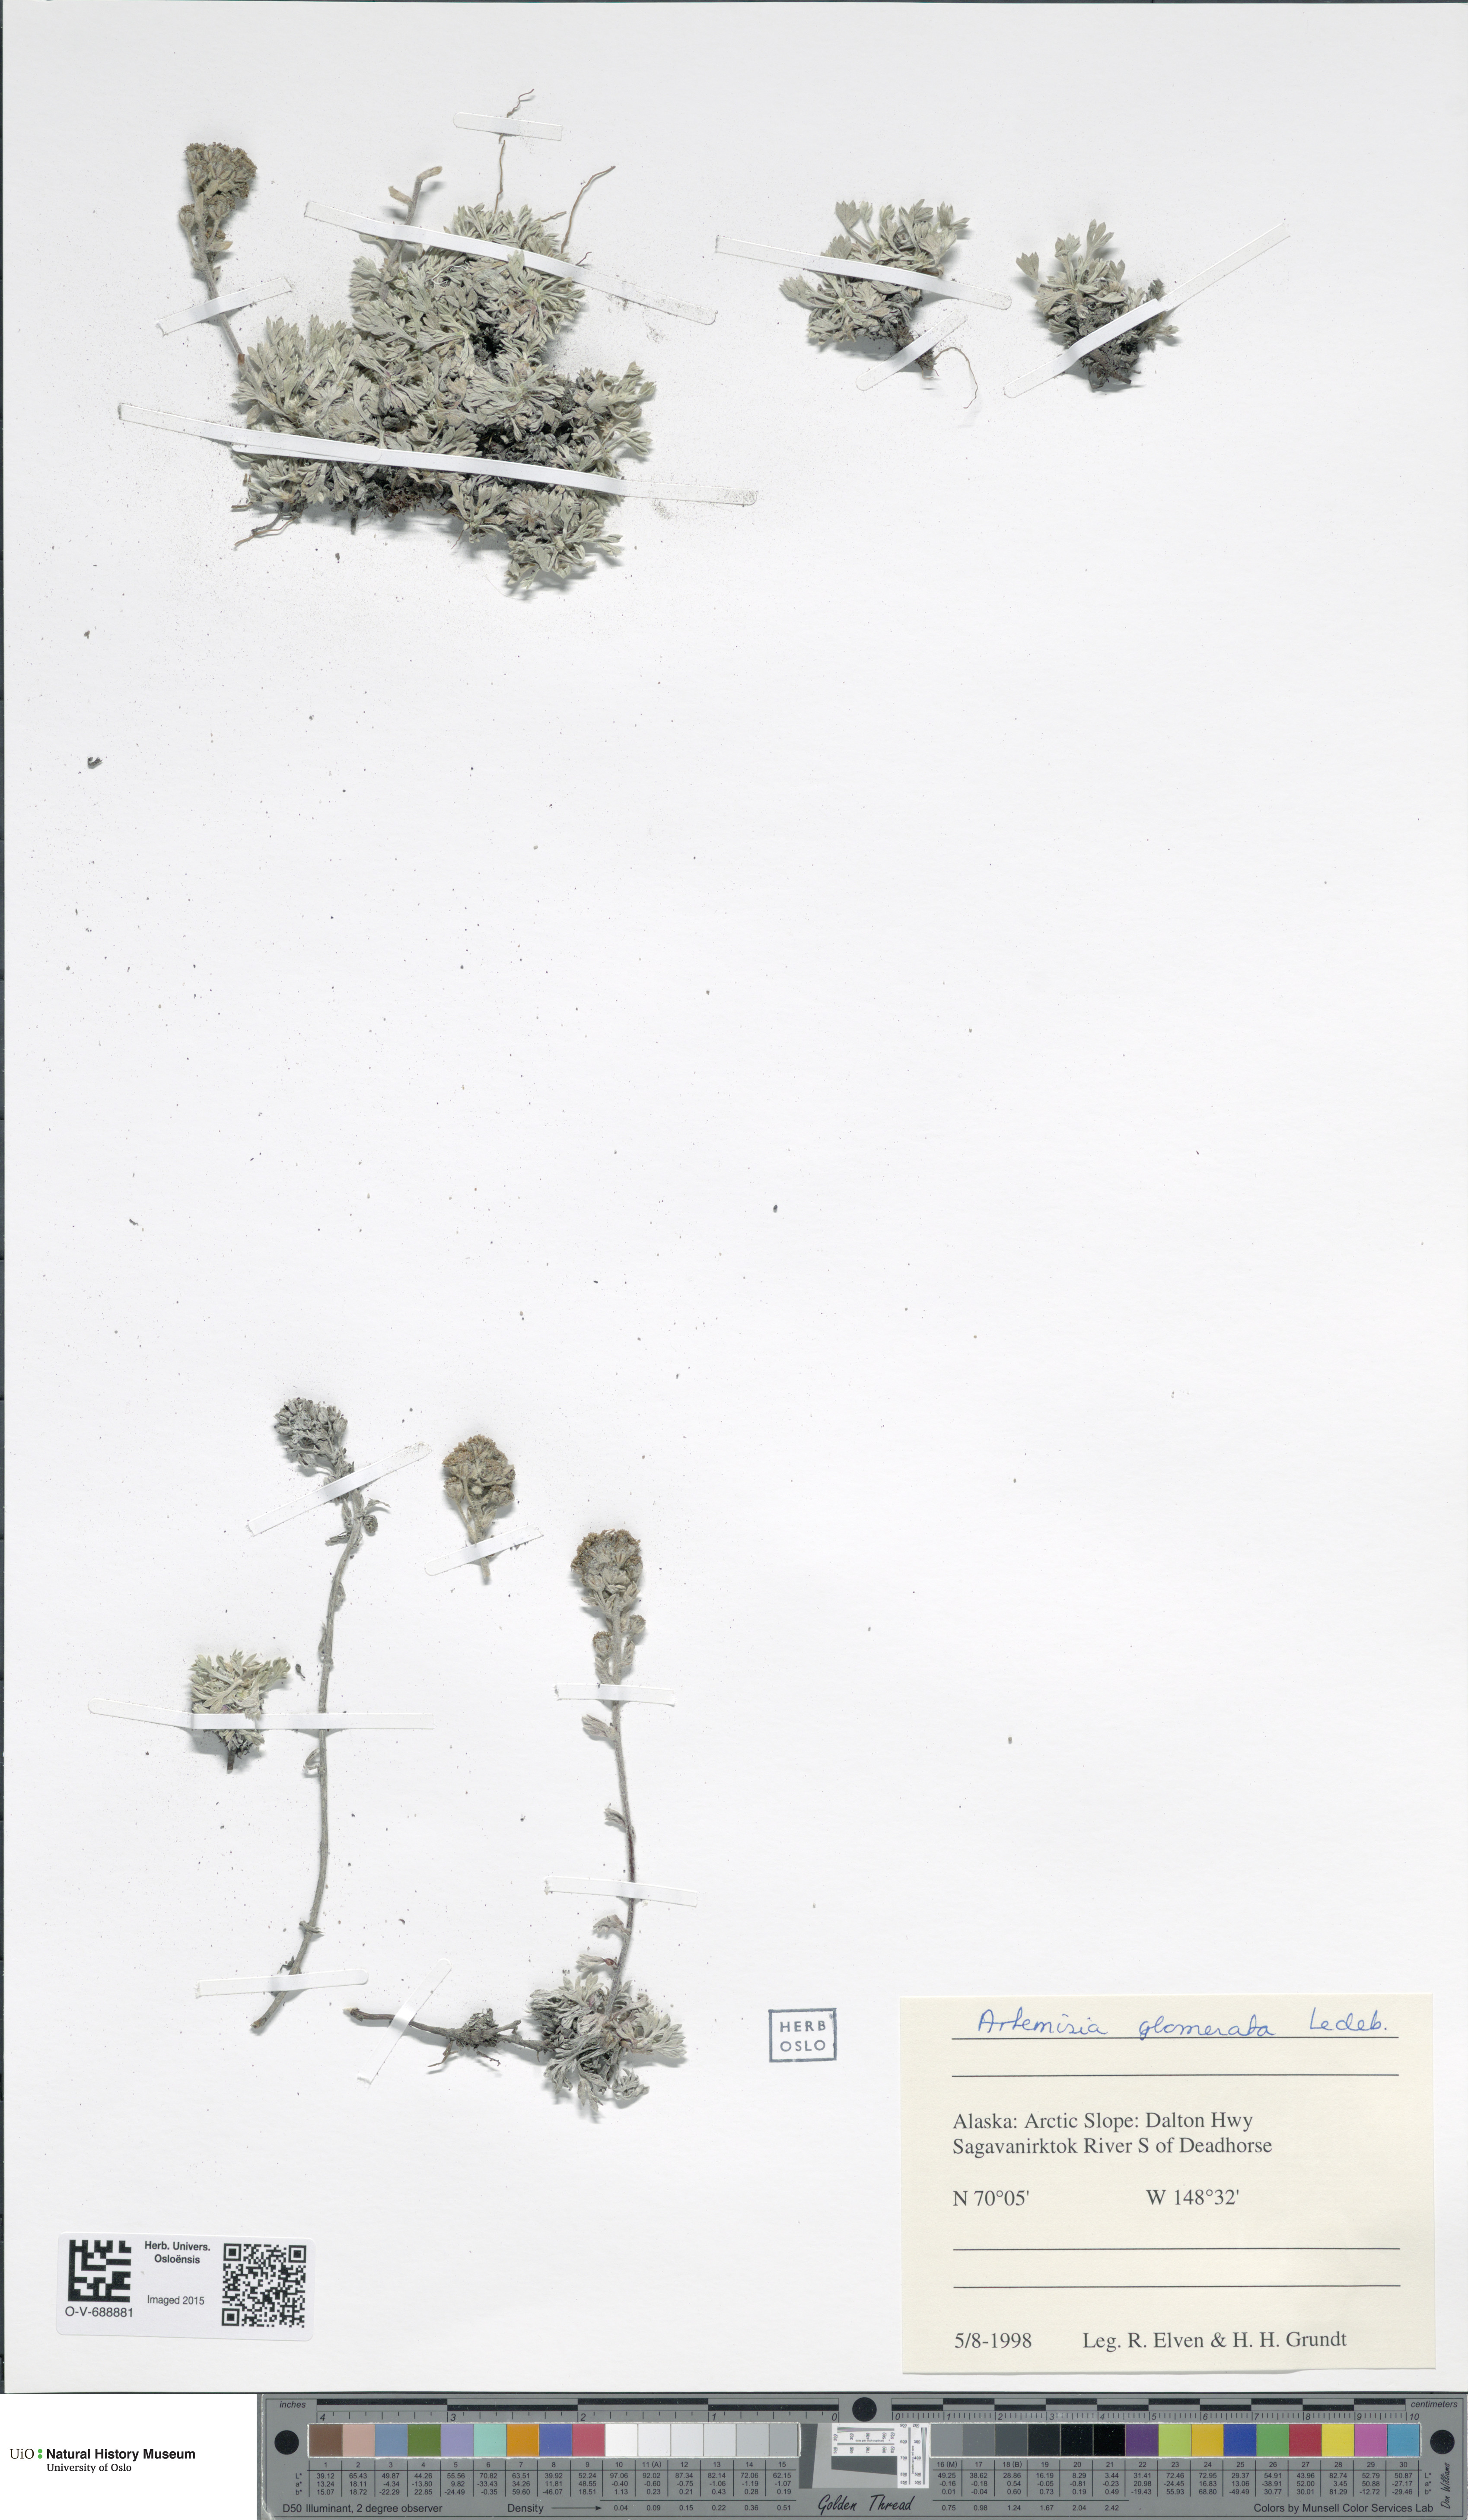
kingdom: Plantae
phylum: Tracheophyta
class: Magnoliopsida
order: Asterales
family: Asteraceae
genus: Artemisia
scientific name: Artemisia glomerata
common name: Pacific alpine wormwood
